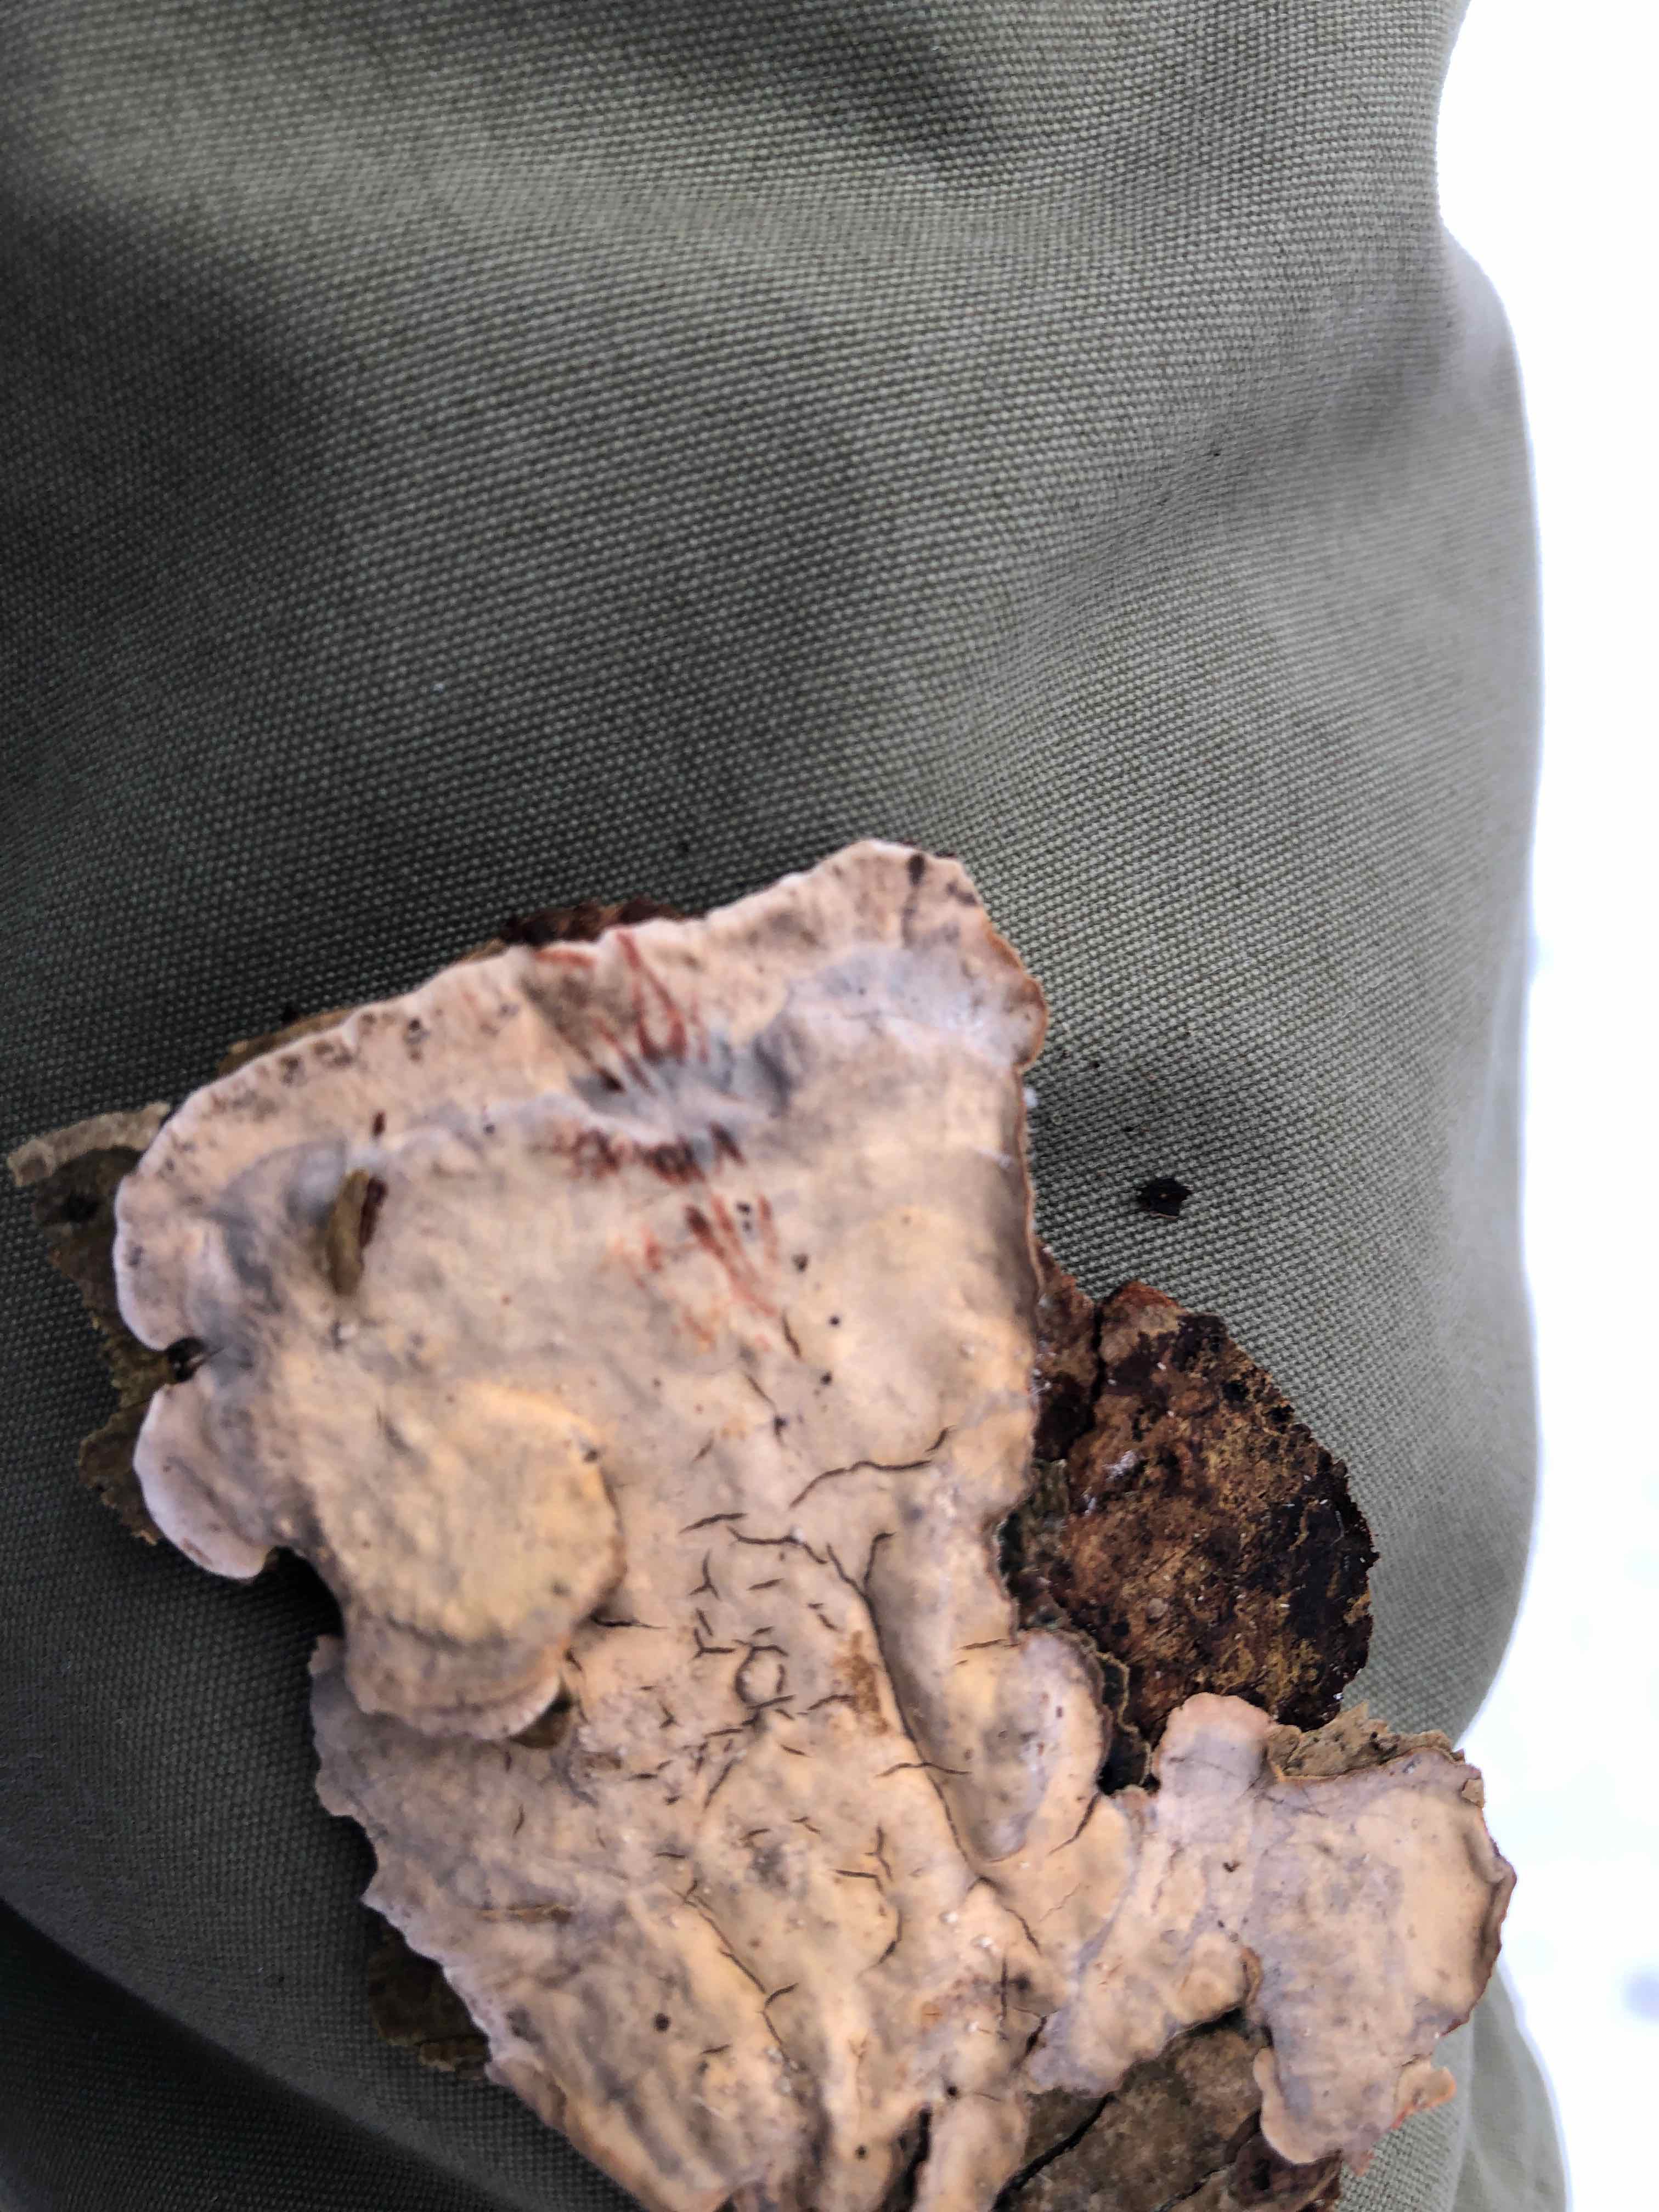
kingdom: Fungi
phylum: Basidiomycota
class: Agaricomycetes
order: Russulales
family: Stereaceae
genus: Stereum
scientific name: Stereum rugosum
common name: rynket lædersvamp
